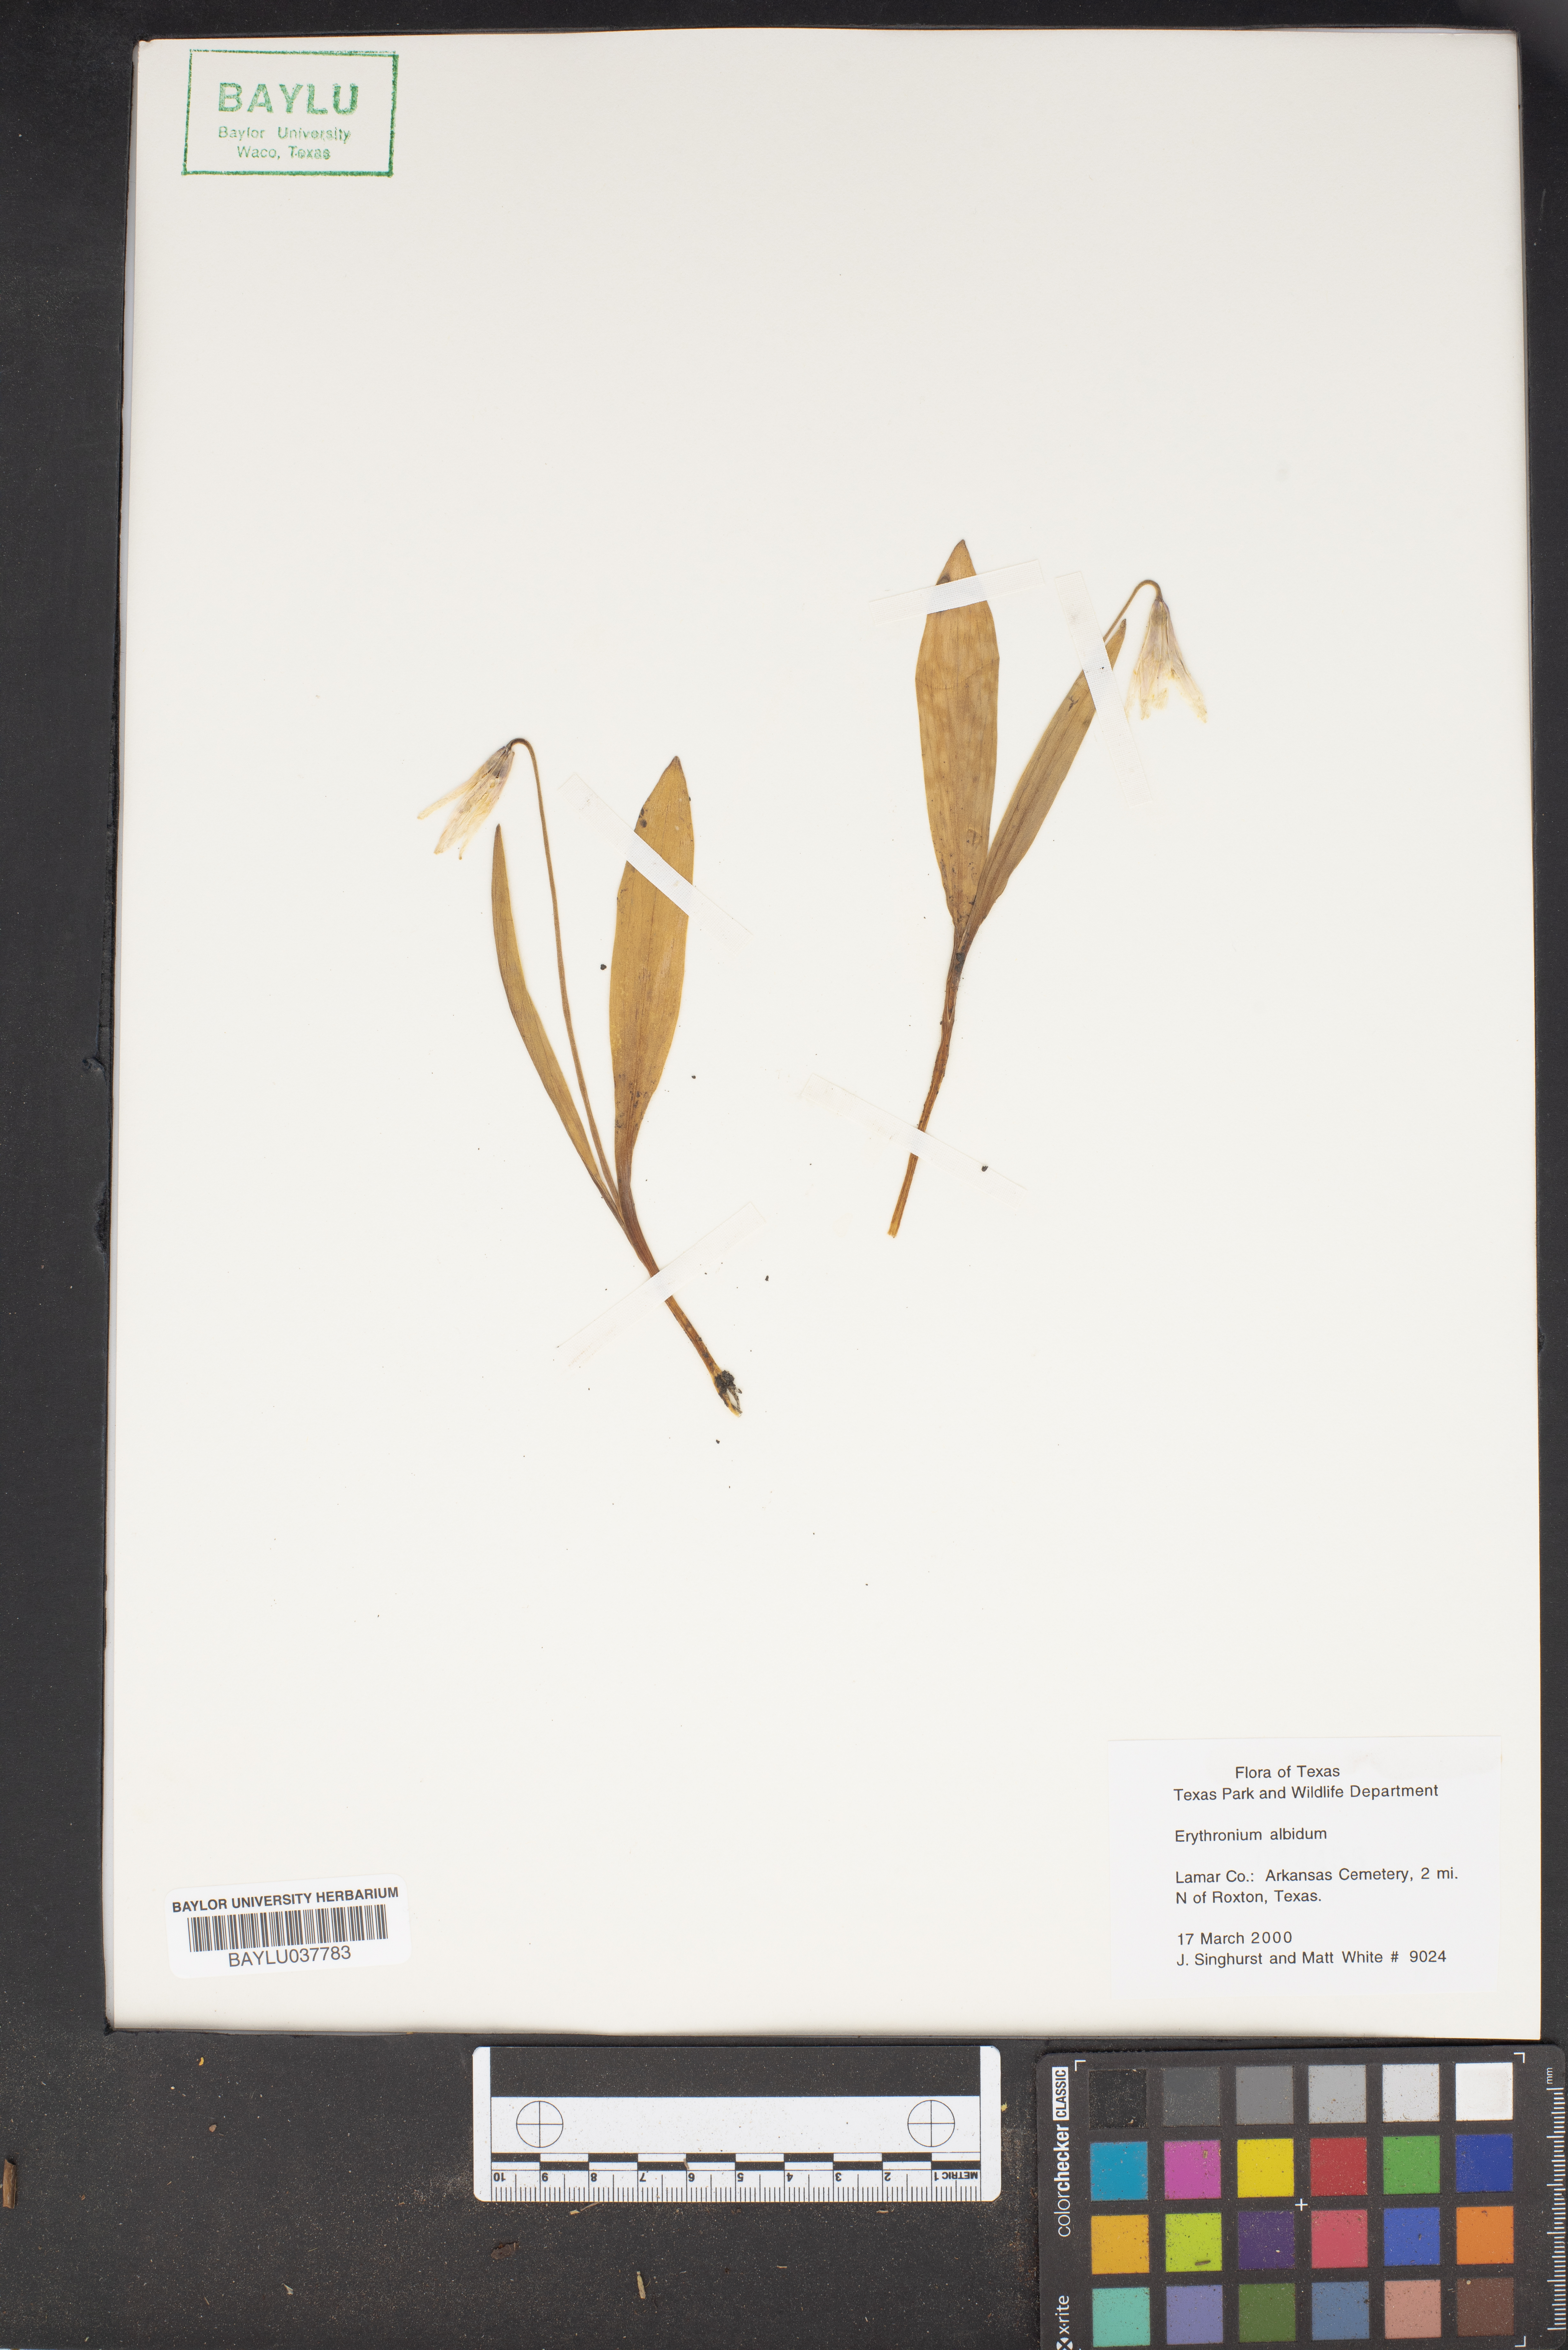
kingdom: Plantae
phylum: Tracheophyta
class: Liliopsida
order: Liliales
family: Liliaceae
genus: Erythronium
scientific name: Erythronium albidum
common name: White trout-lily
